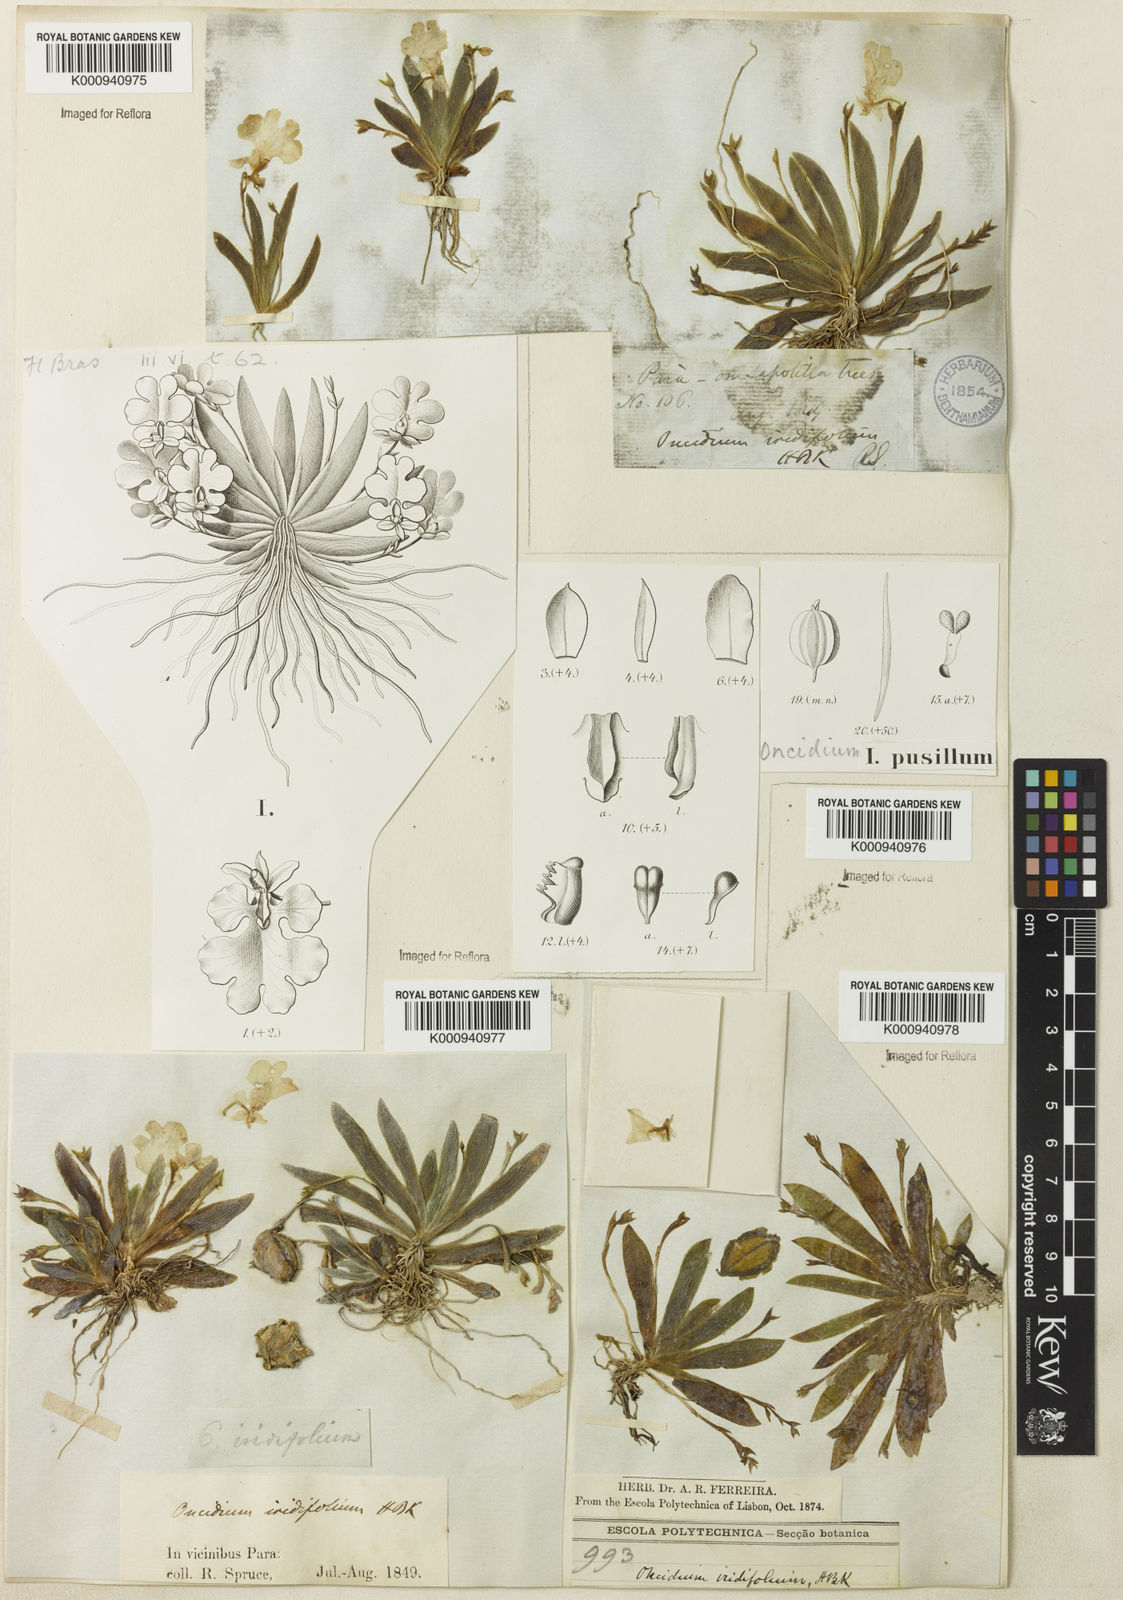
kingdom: Plantae
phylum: Tracheophyta
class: Liliopsida
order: Asparagales
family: Orchidaceae
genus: Erycina
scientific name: Erycina pusilla
